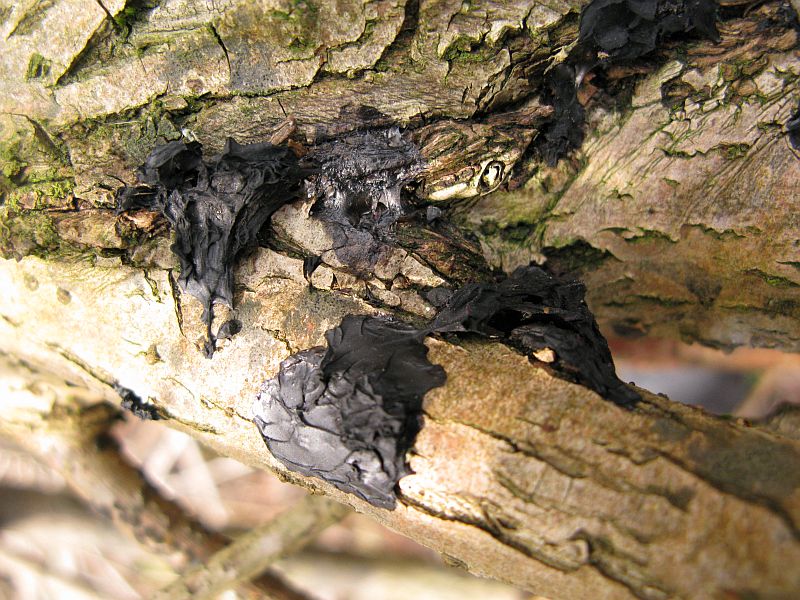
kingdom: Fungi
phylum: Basidiomycota
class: Agaricomycetes
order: Auriculariales
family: Auriculariaceae
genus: Exidia
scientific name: Exidia recisa
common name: pile-bævretop
